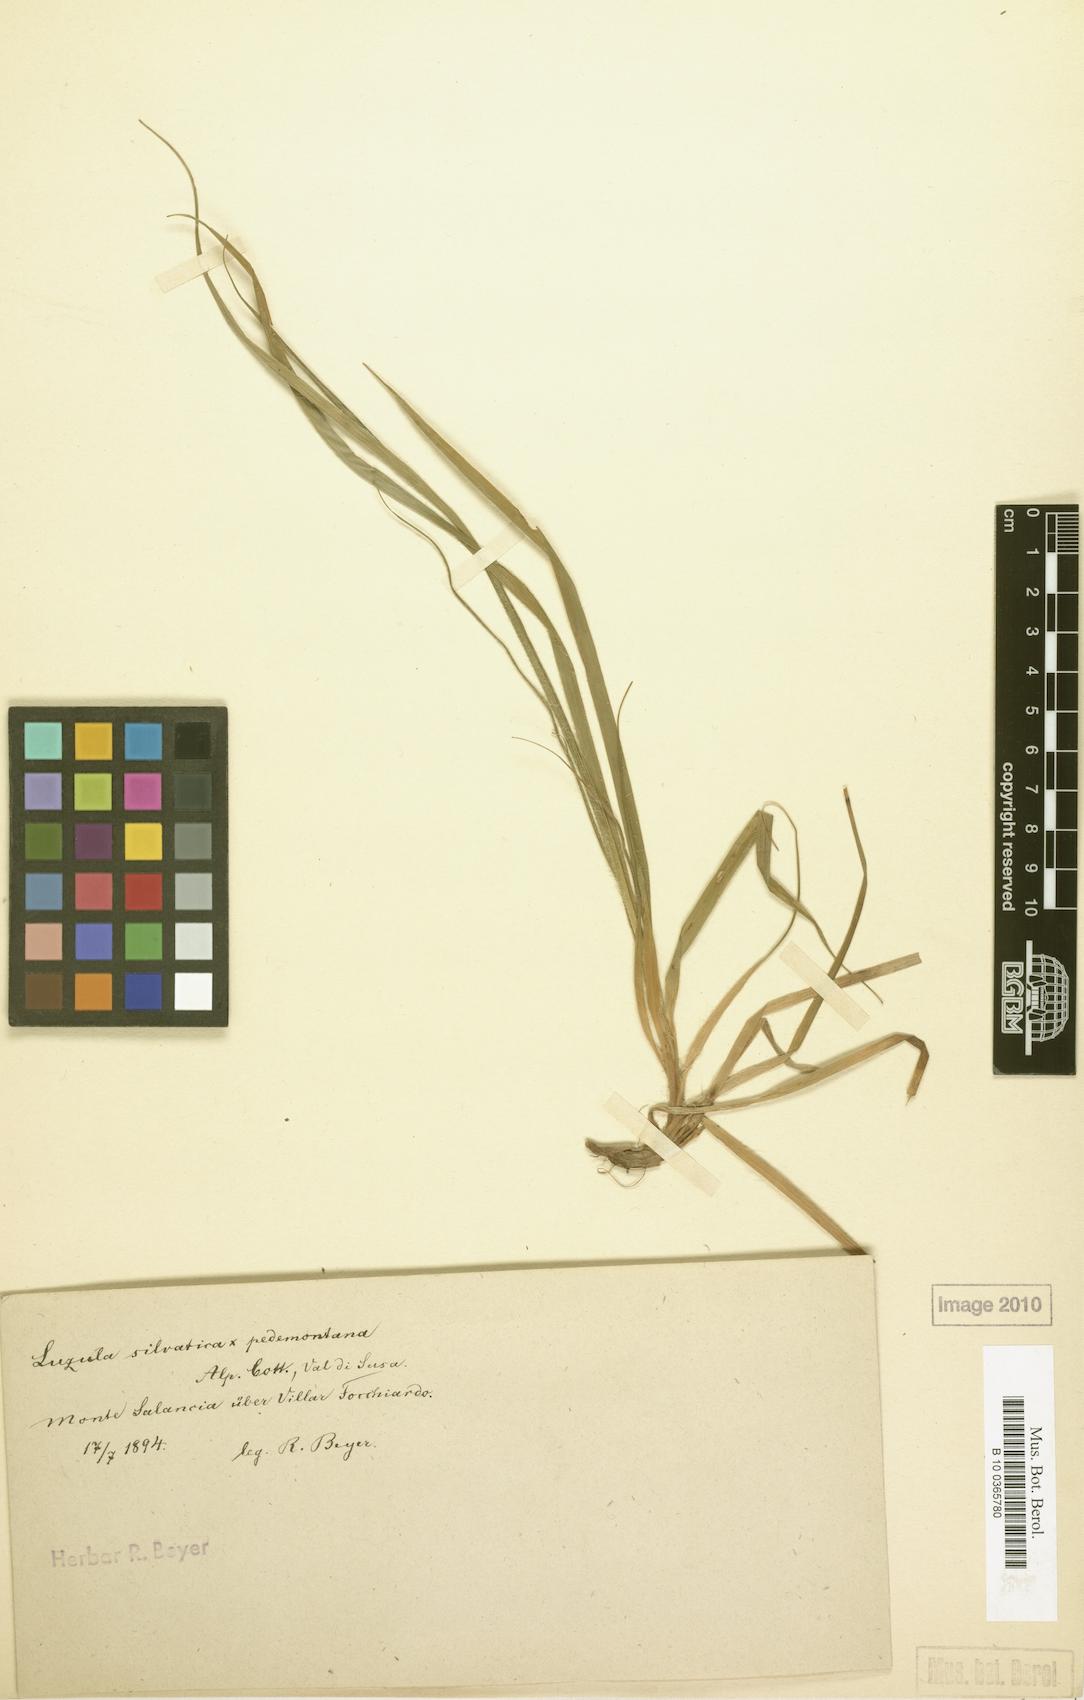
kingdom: Plantae
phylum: Tracheophyta
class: Liliopsida
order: Poales
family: Juncaceae
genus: Luzula
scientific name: Luzula lepetitiana
